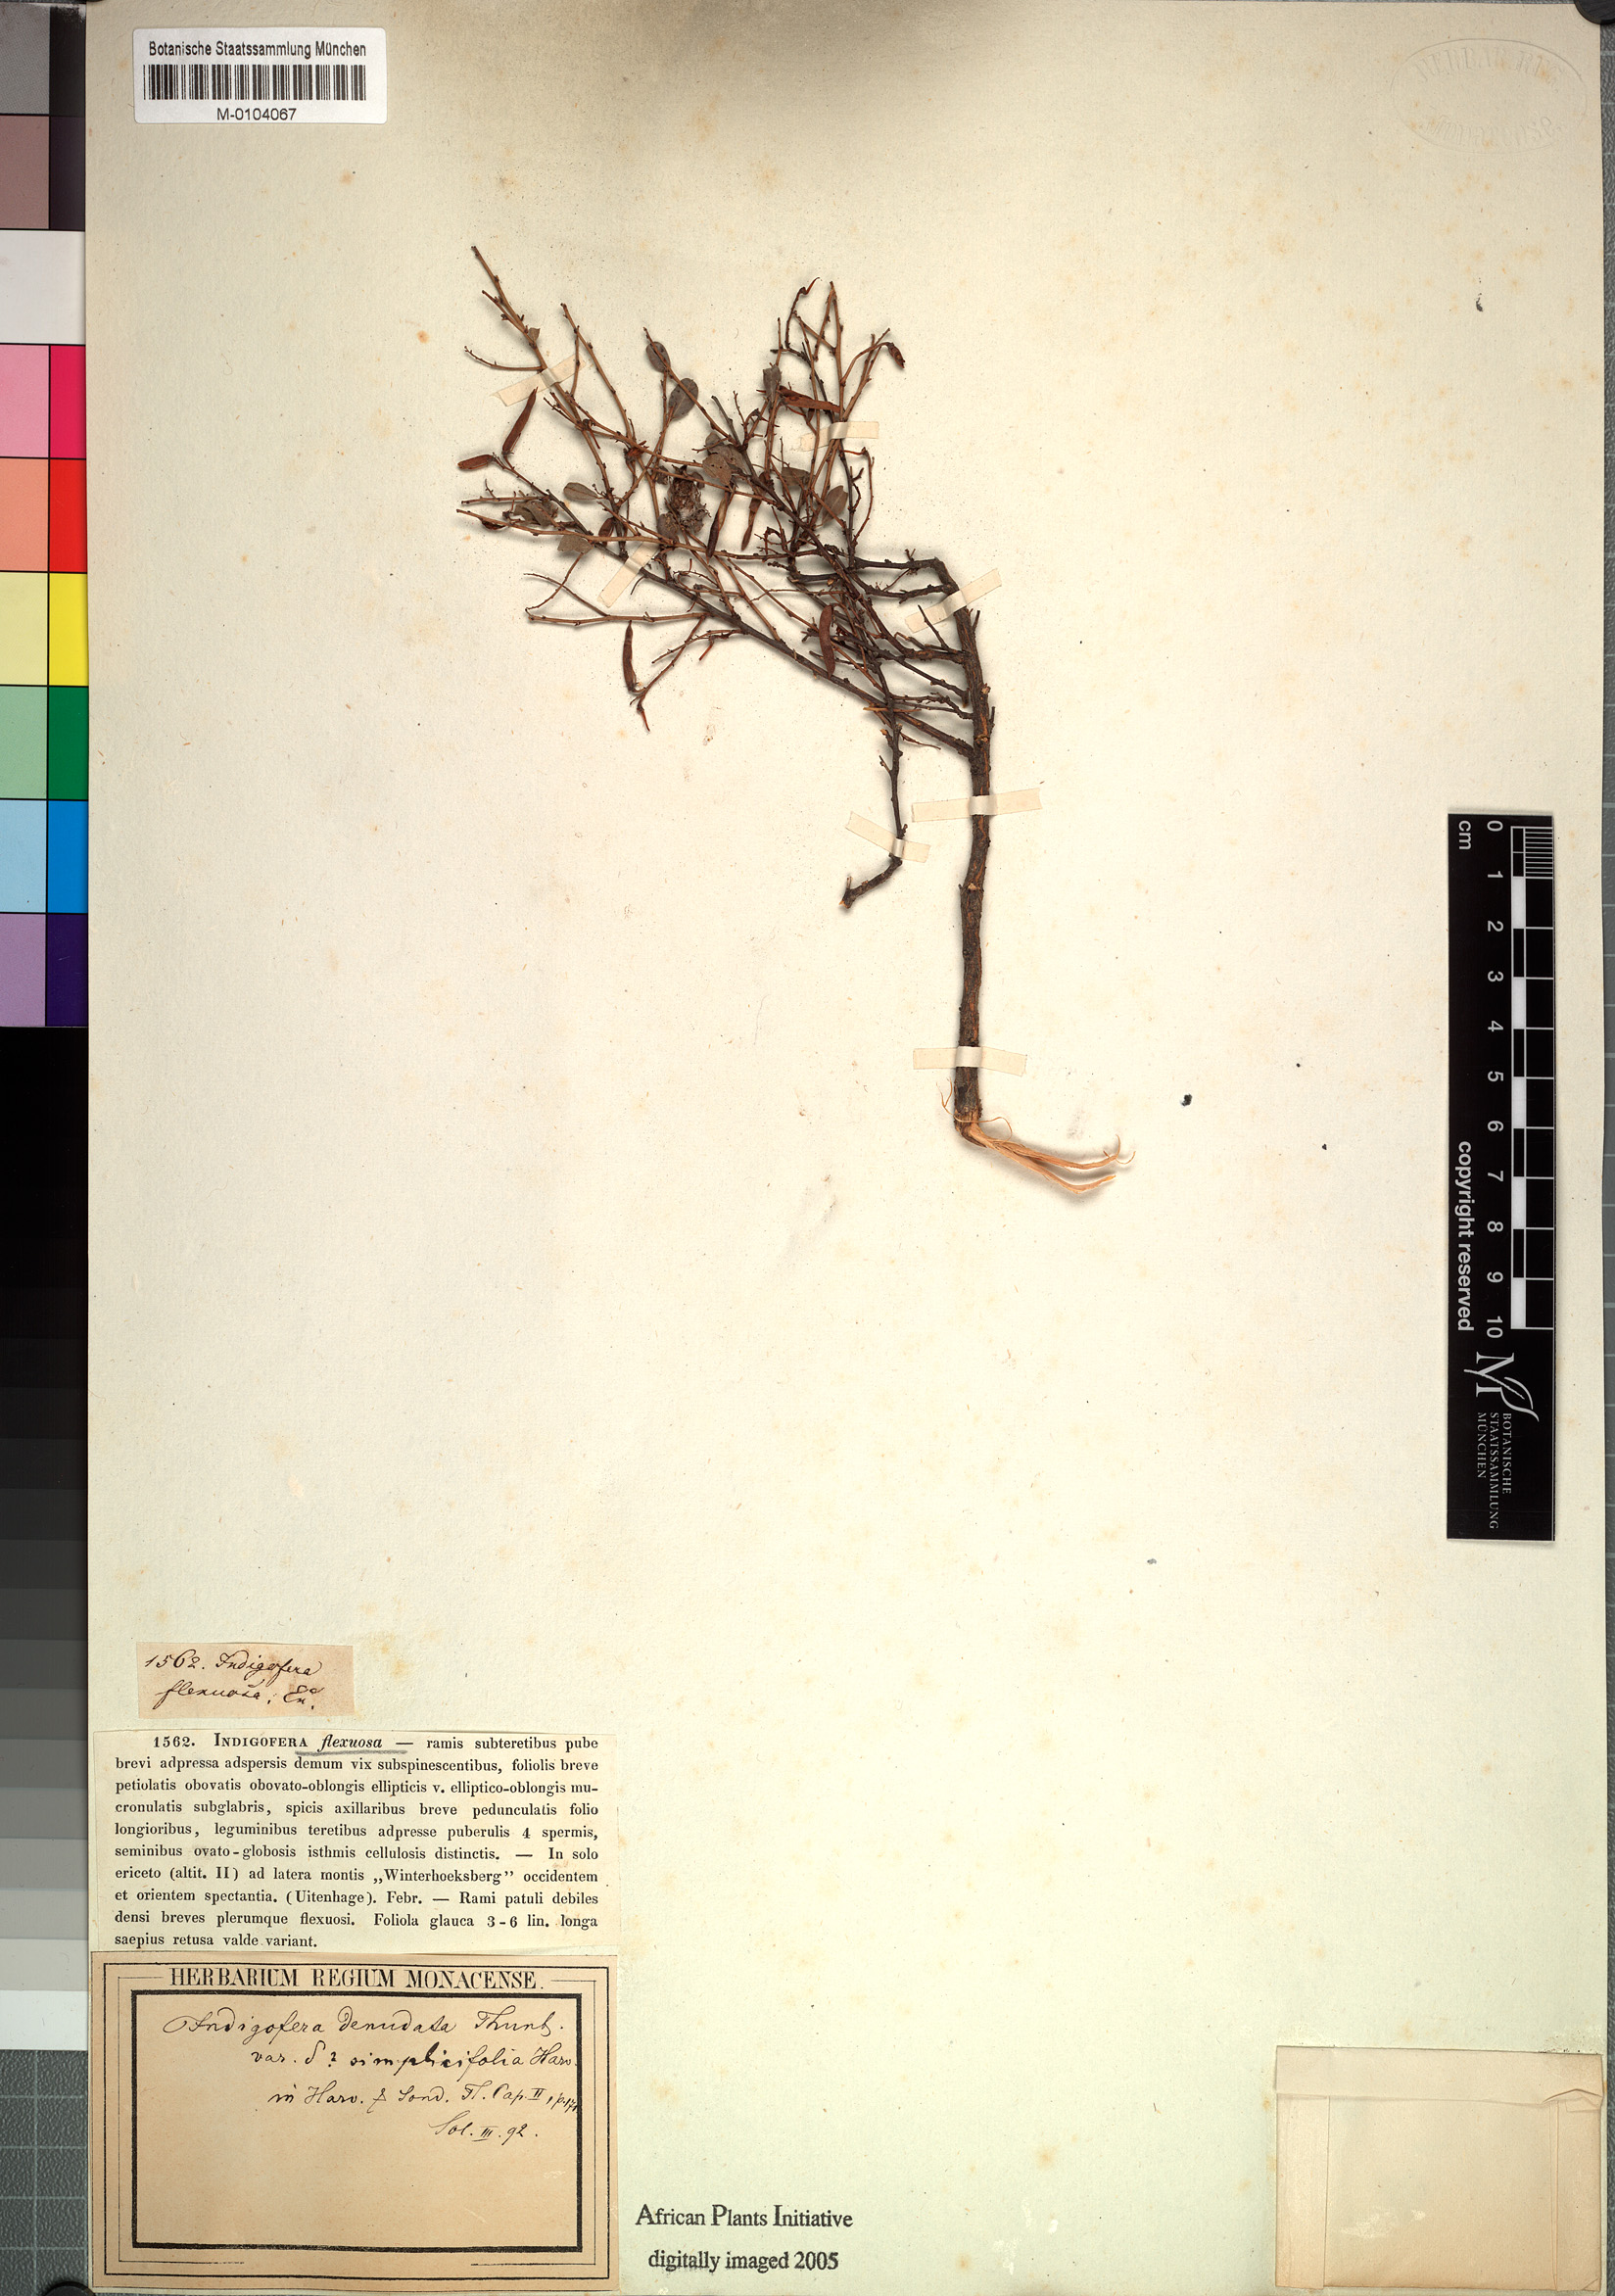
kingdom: Plantae
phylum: Tracheophyta
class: Magnoliopsida
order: Fabales
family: Fabaceae
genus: Indigofera
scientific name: Indigofera denudata
